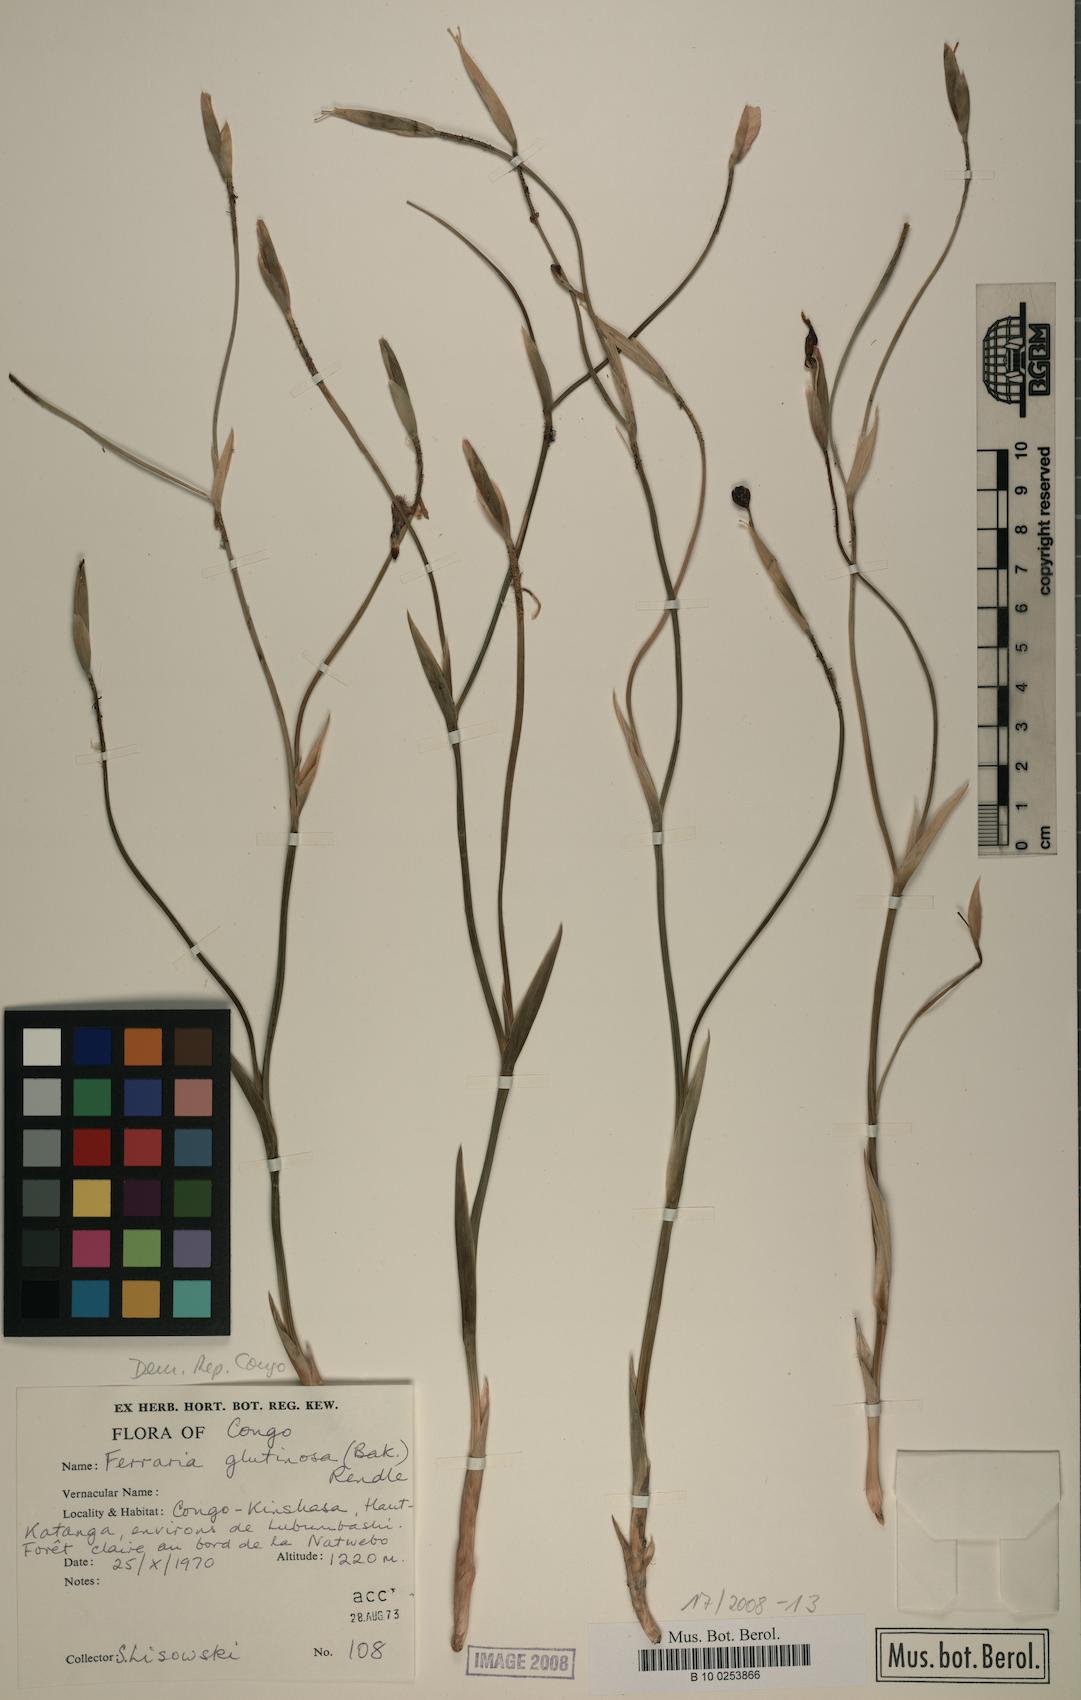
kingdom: Plantae
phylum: Tracheophyta
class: Liliopsida
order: Asparagales
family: Iridaceae
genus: Ferraria
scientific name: Ferraria glutinosa
